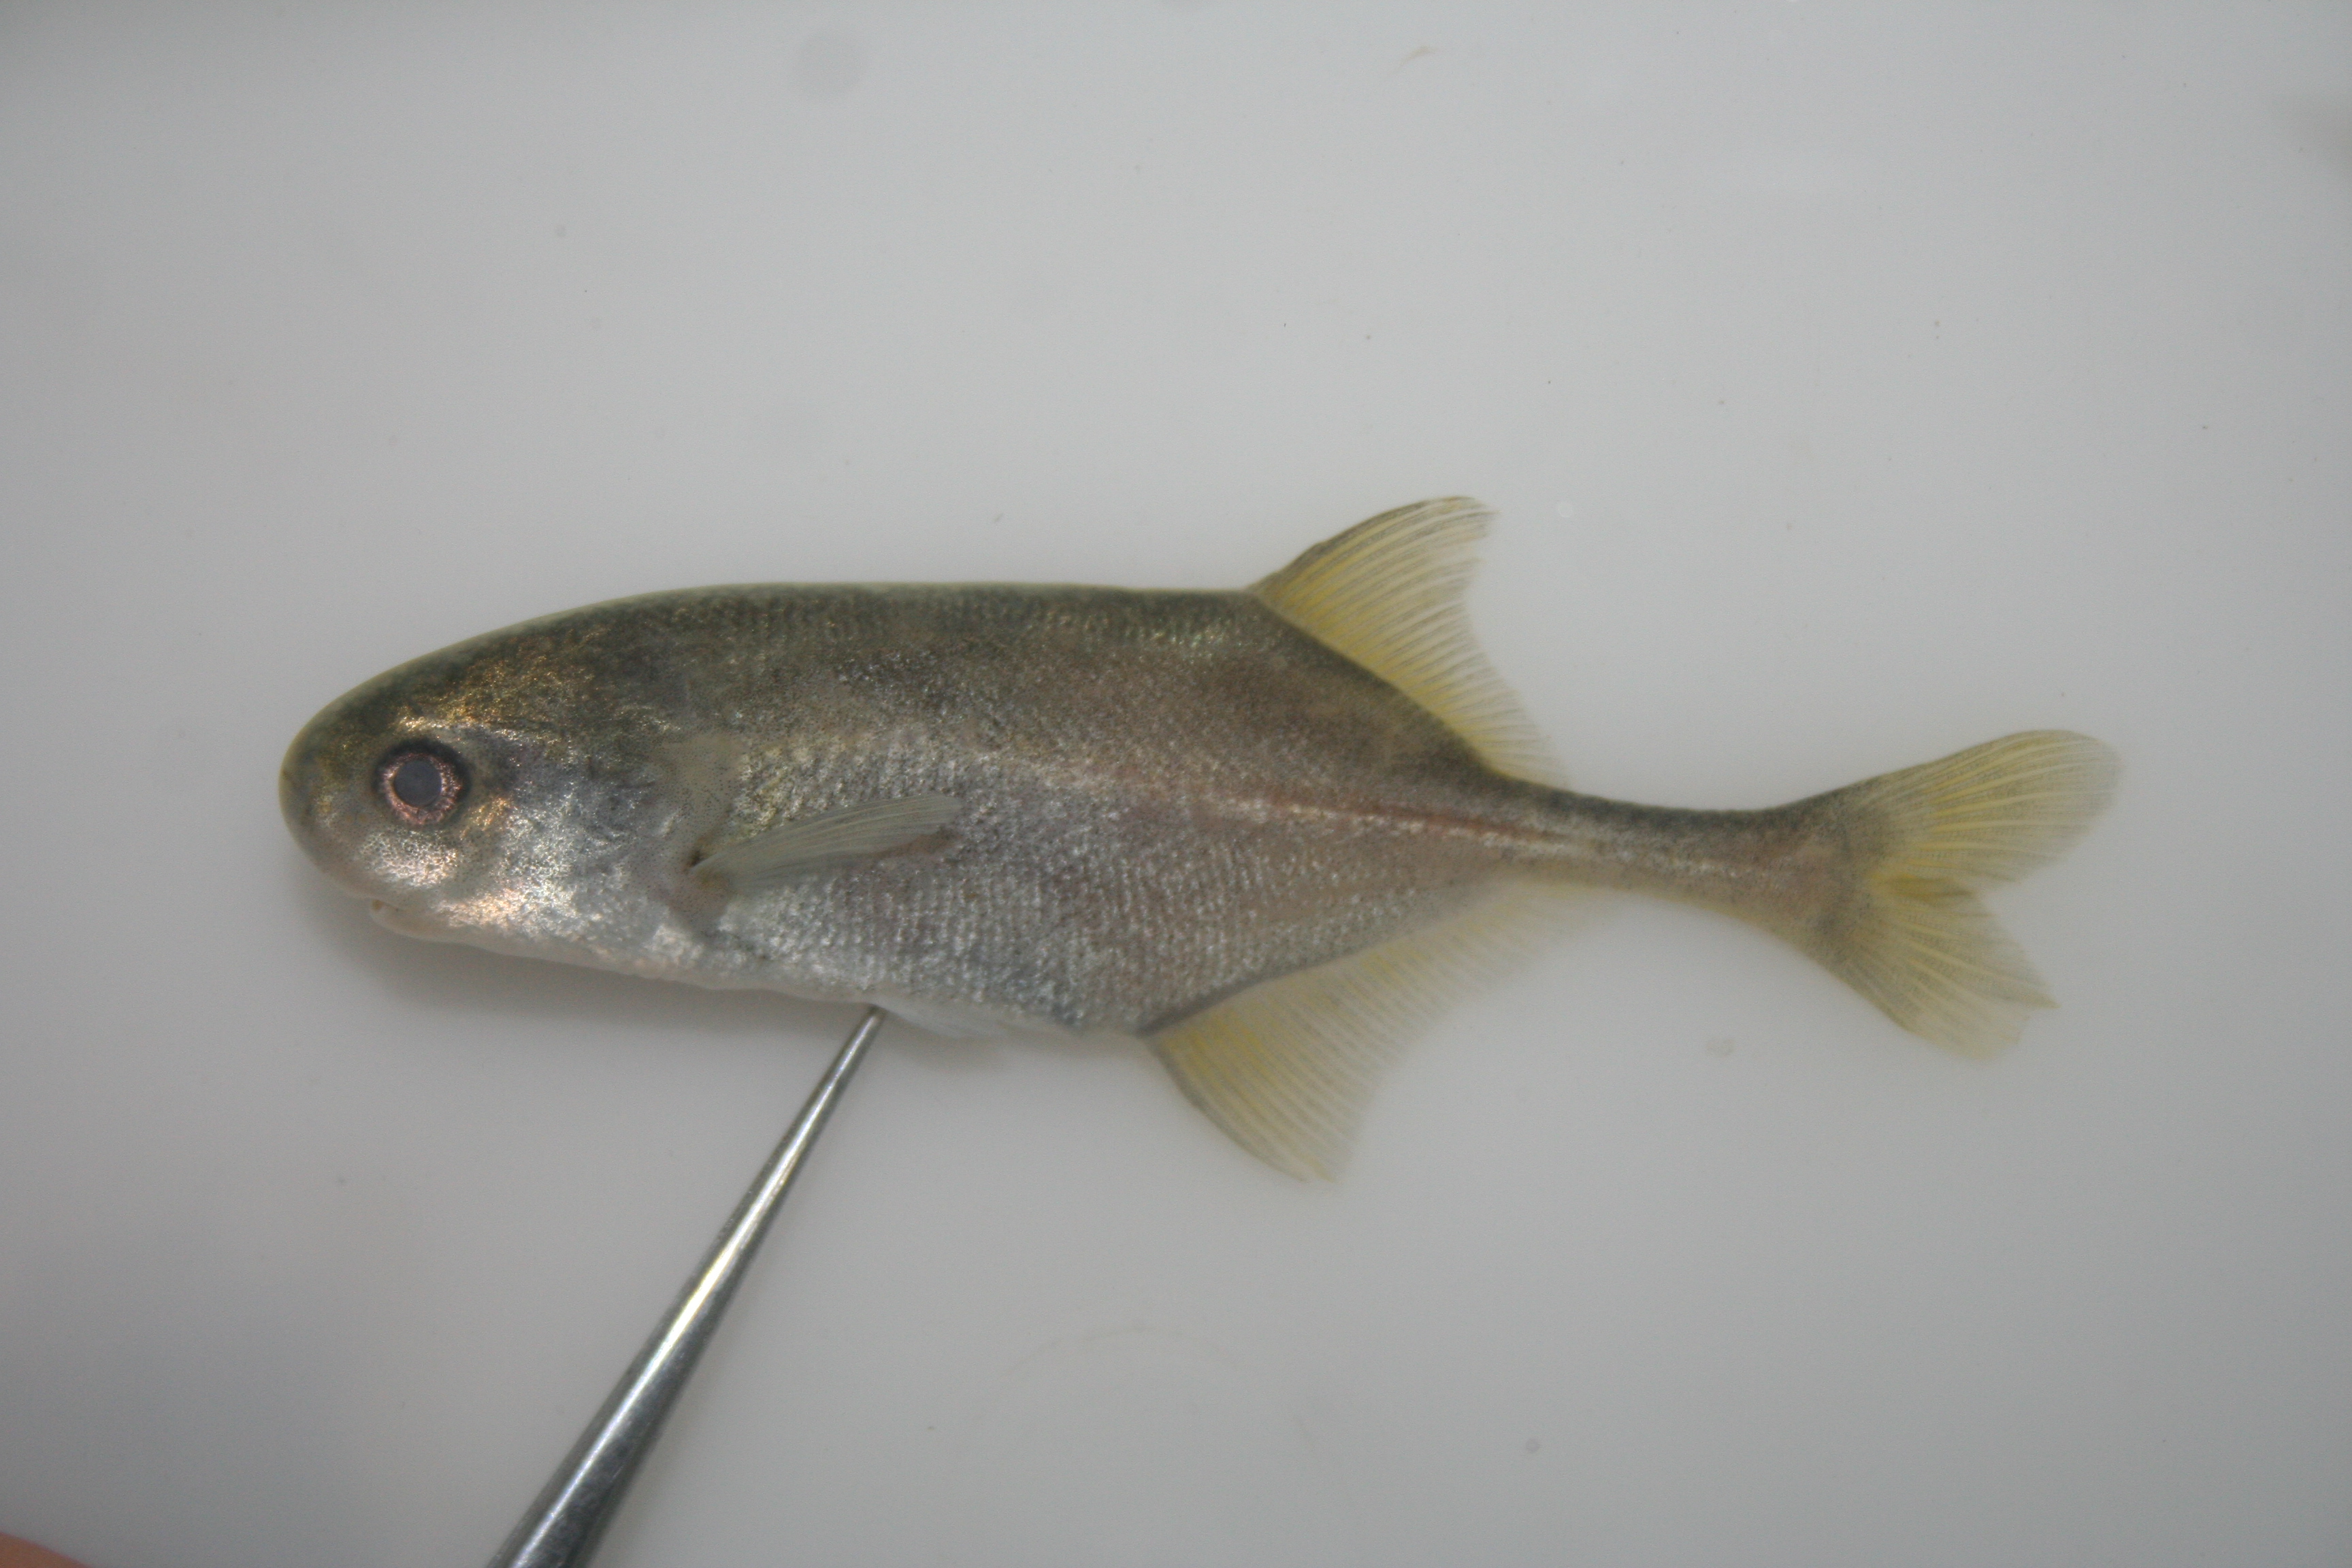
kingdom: Animalia
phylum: Chordata
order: Osteoglossiformes
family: Mormyridae
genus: Petrocephalus
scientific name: Petrocephalus
